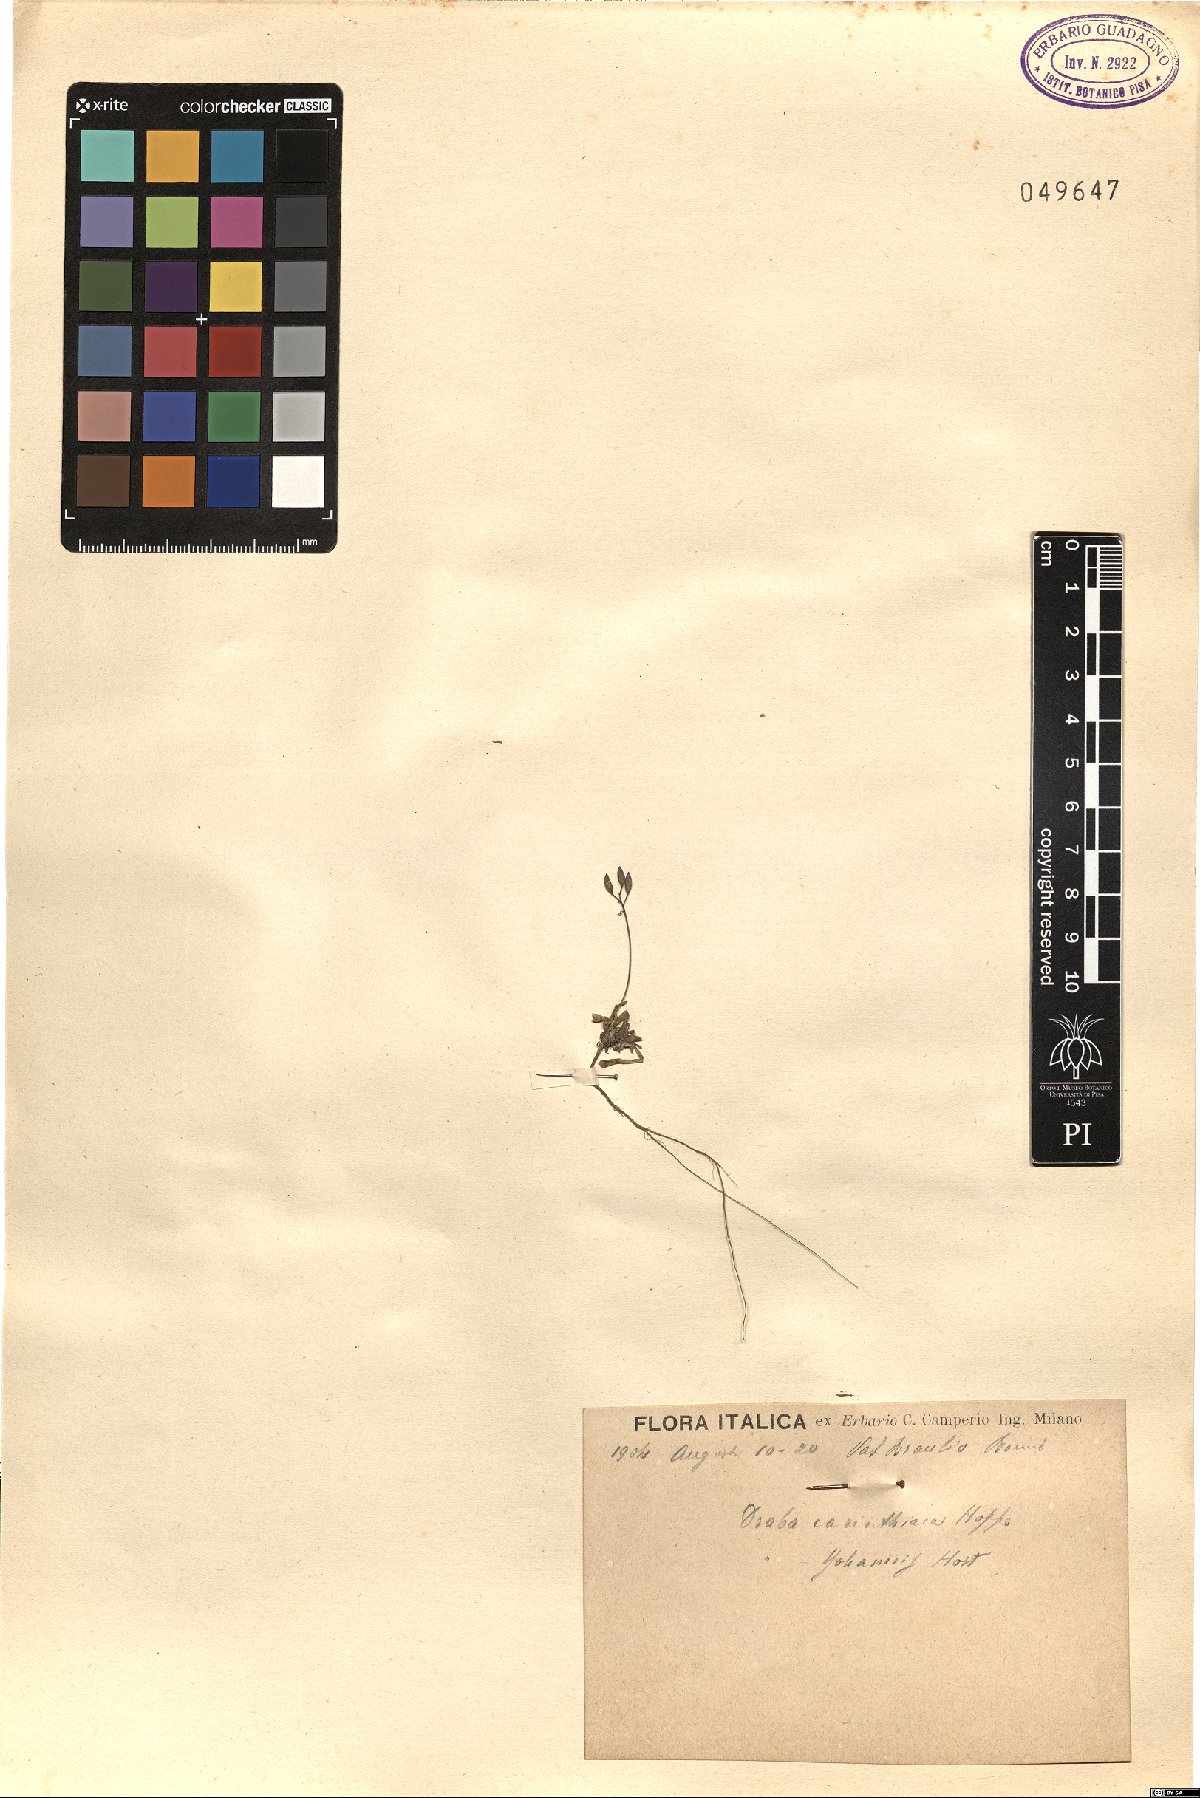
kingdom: Plantae
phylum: Tracheophyta
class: Magnoliopsida
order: Brassicales
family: Brassicaceae
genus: Draba
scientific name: Draba siliquosa
